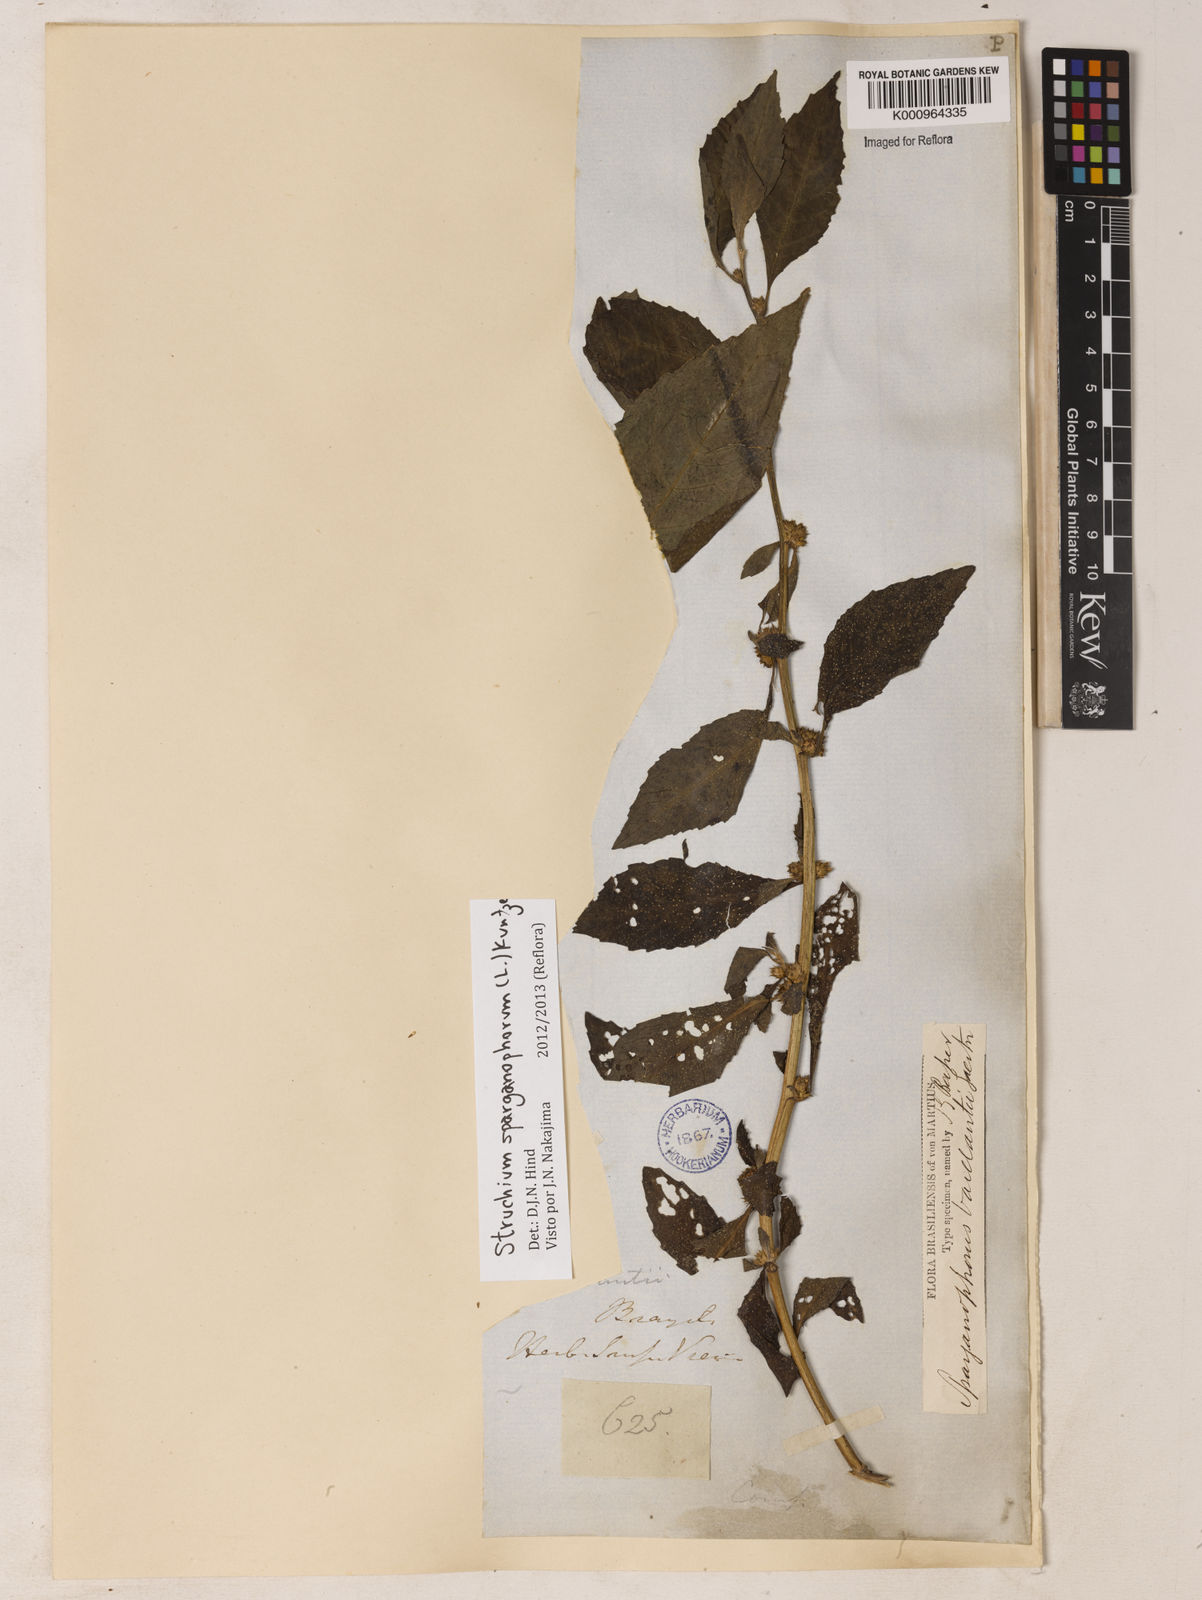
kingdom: Plantae
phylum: Tracheophyta
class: Magnoliopsida
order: Asterales
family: Asteraceae
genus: Struchium
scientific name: Struchium sparganophorum
